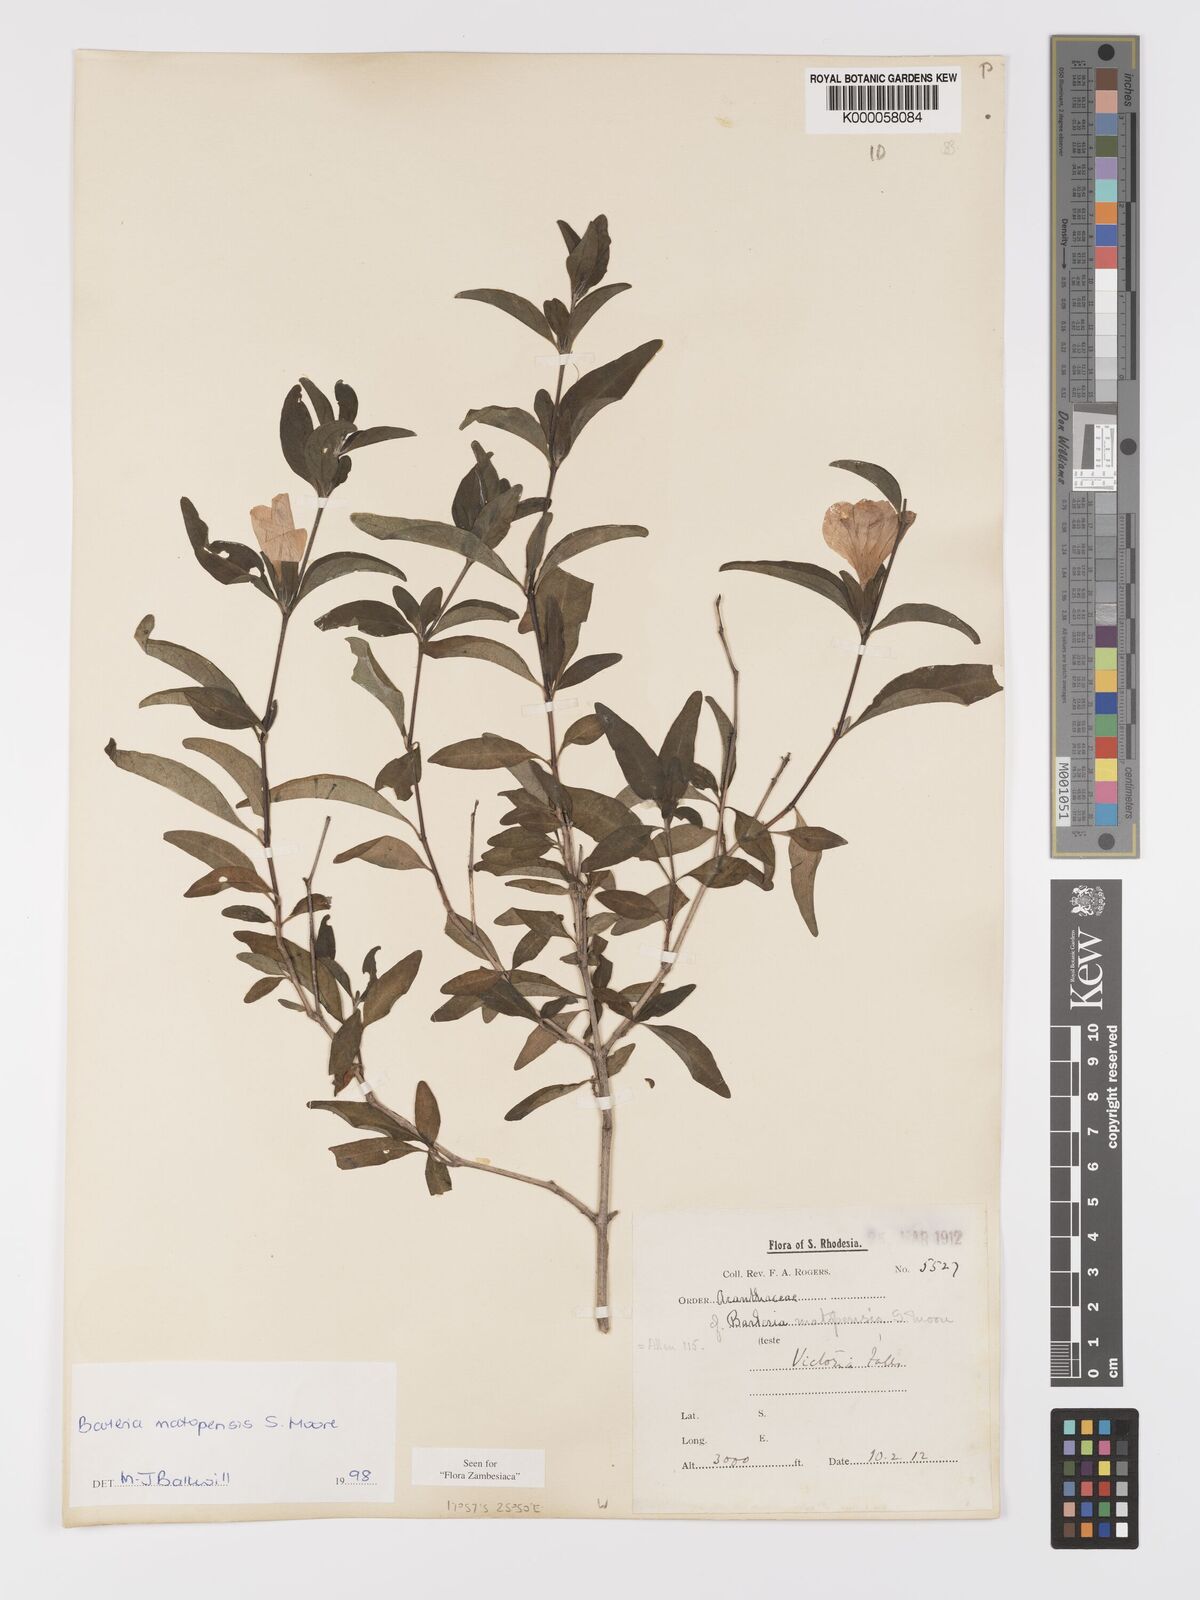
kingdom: Plantae
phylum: Tracheophyta
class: Magnoliopsida
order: Lamiales
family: Acanthaceae
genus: Barleria
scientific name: Barleria matopensis
